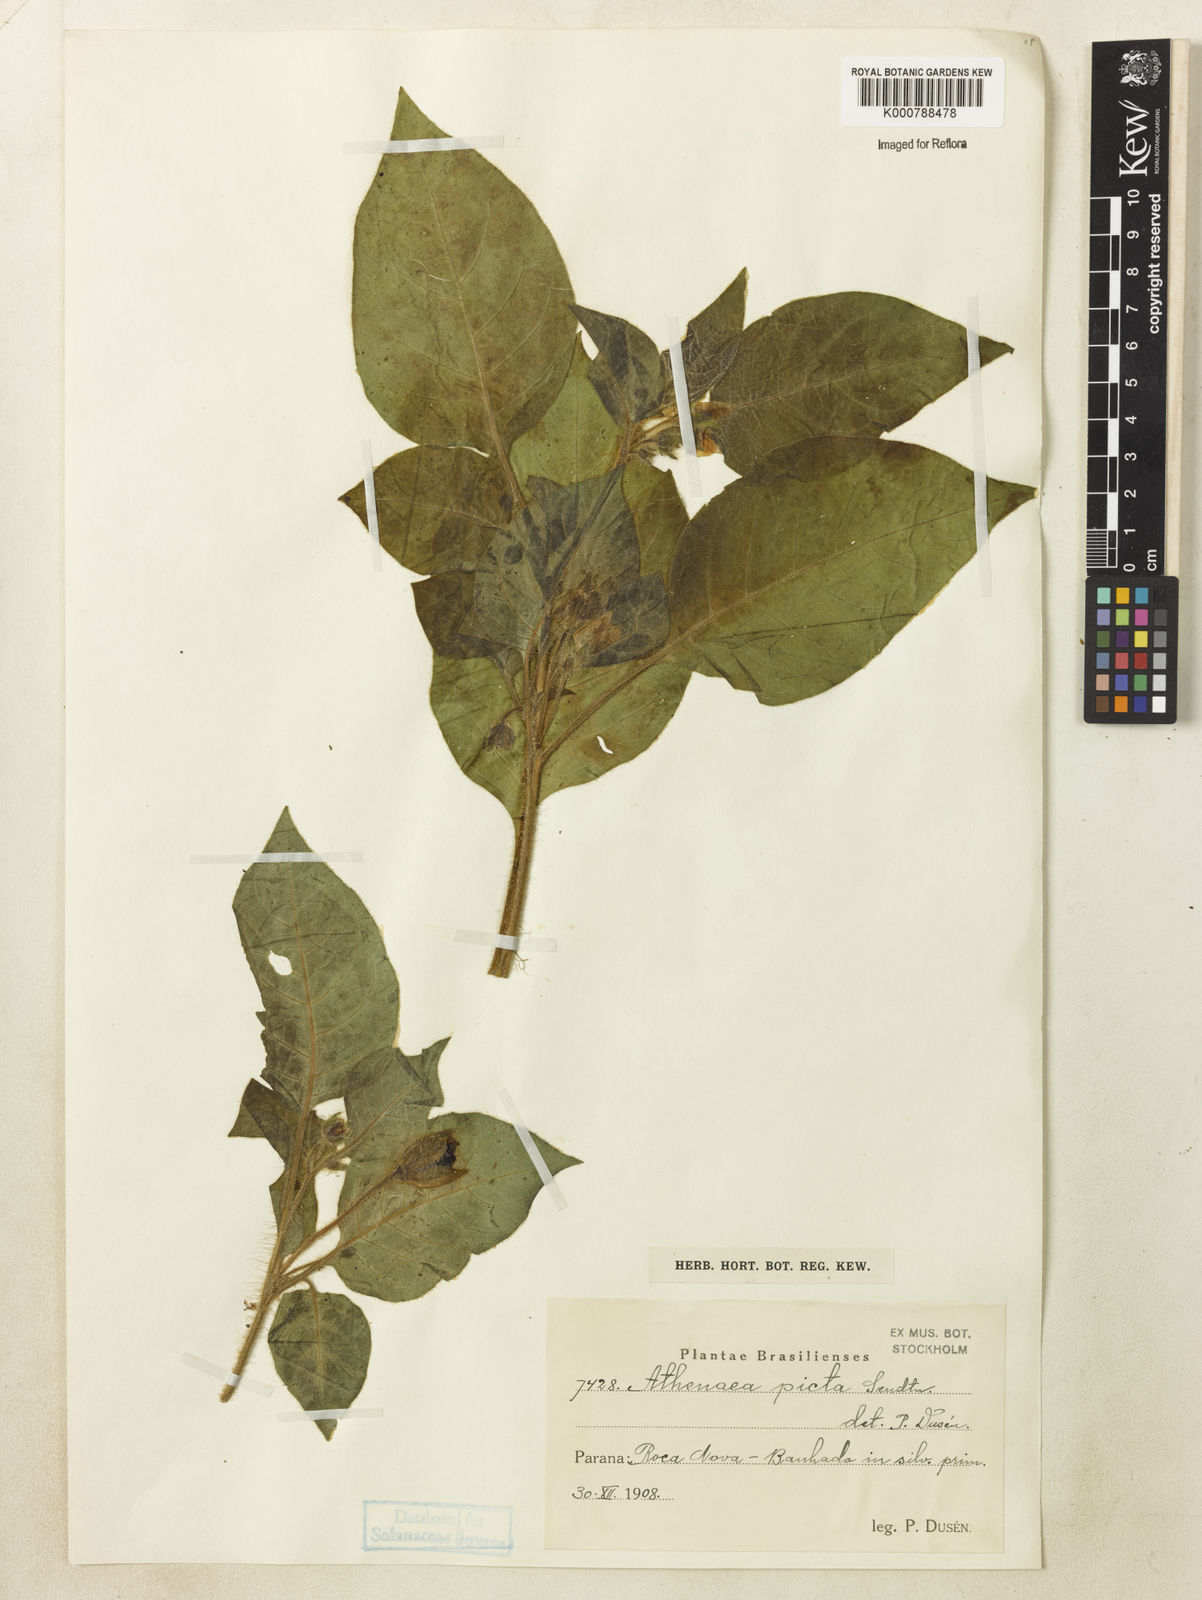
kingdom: Plantae
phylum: Tracheophyta
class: Magnoliopsida
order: Solanales
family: Solanaceae
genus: Athenaea
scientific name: Athenaea picta
